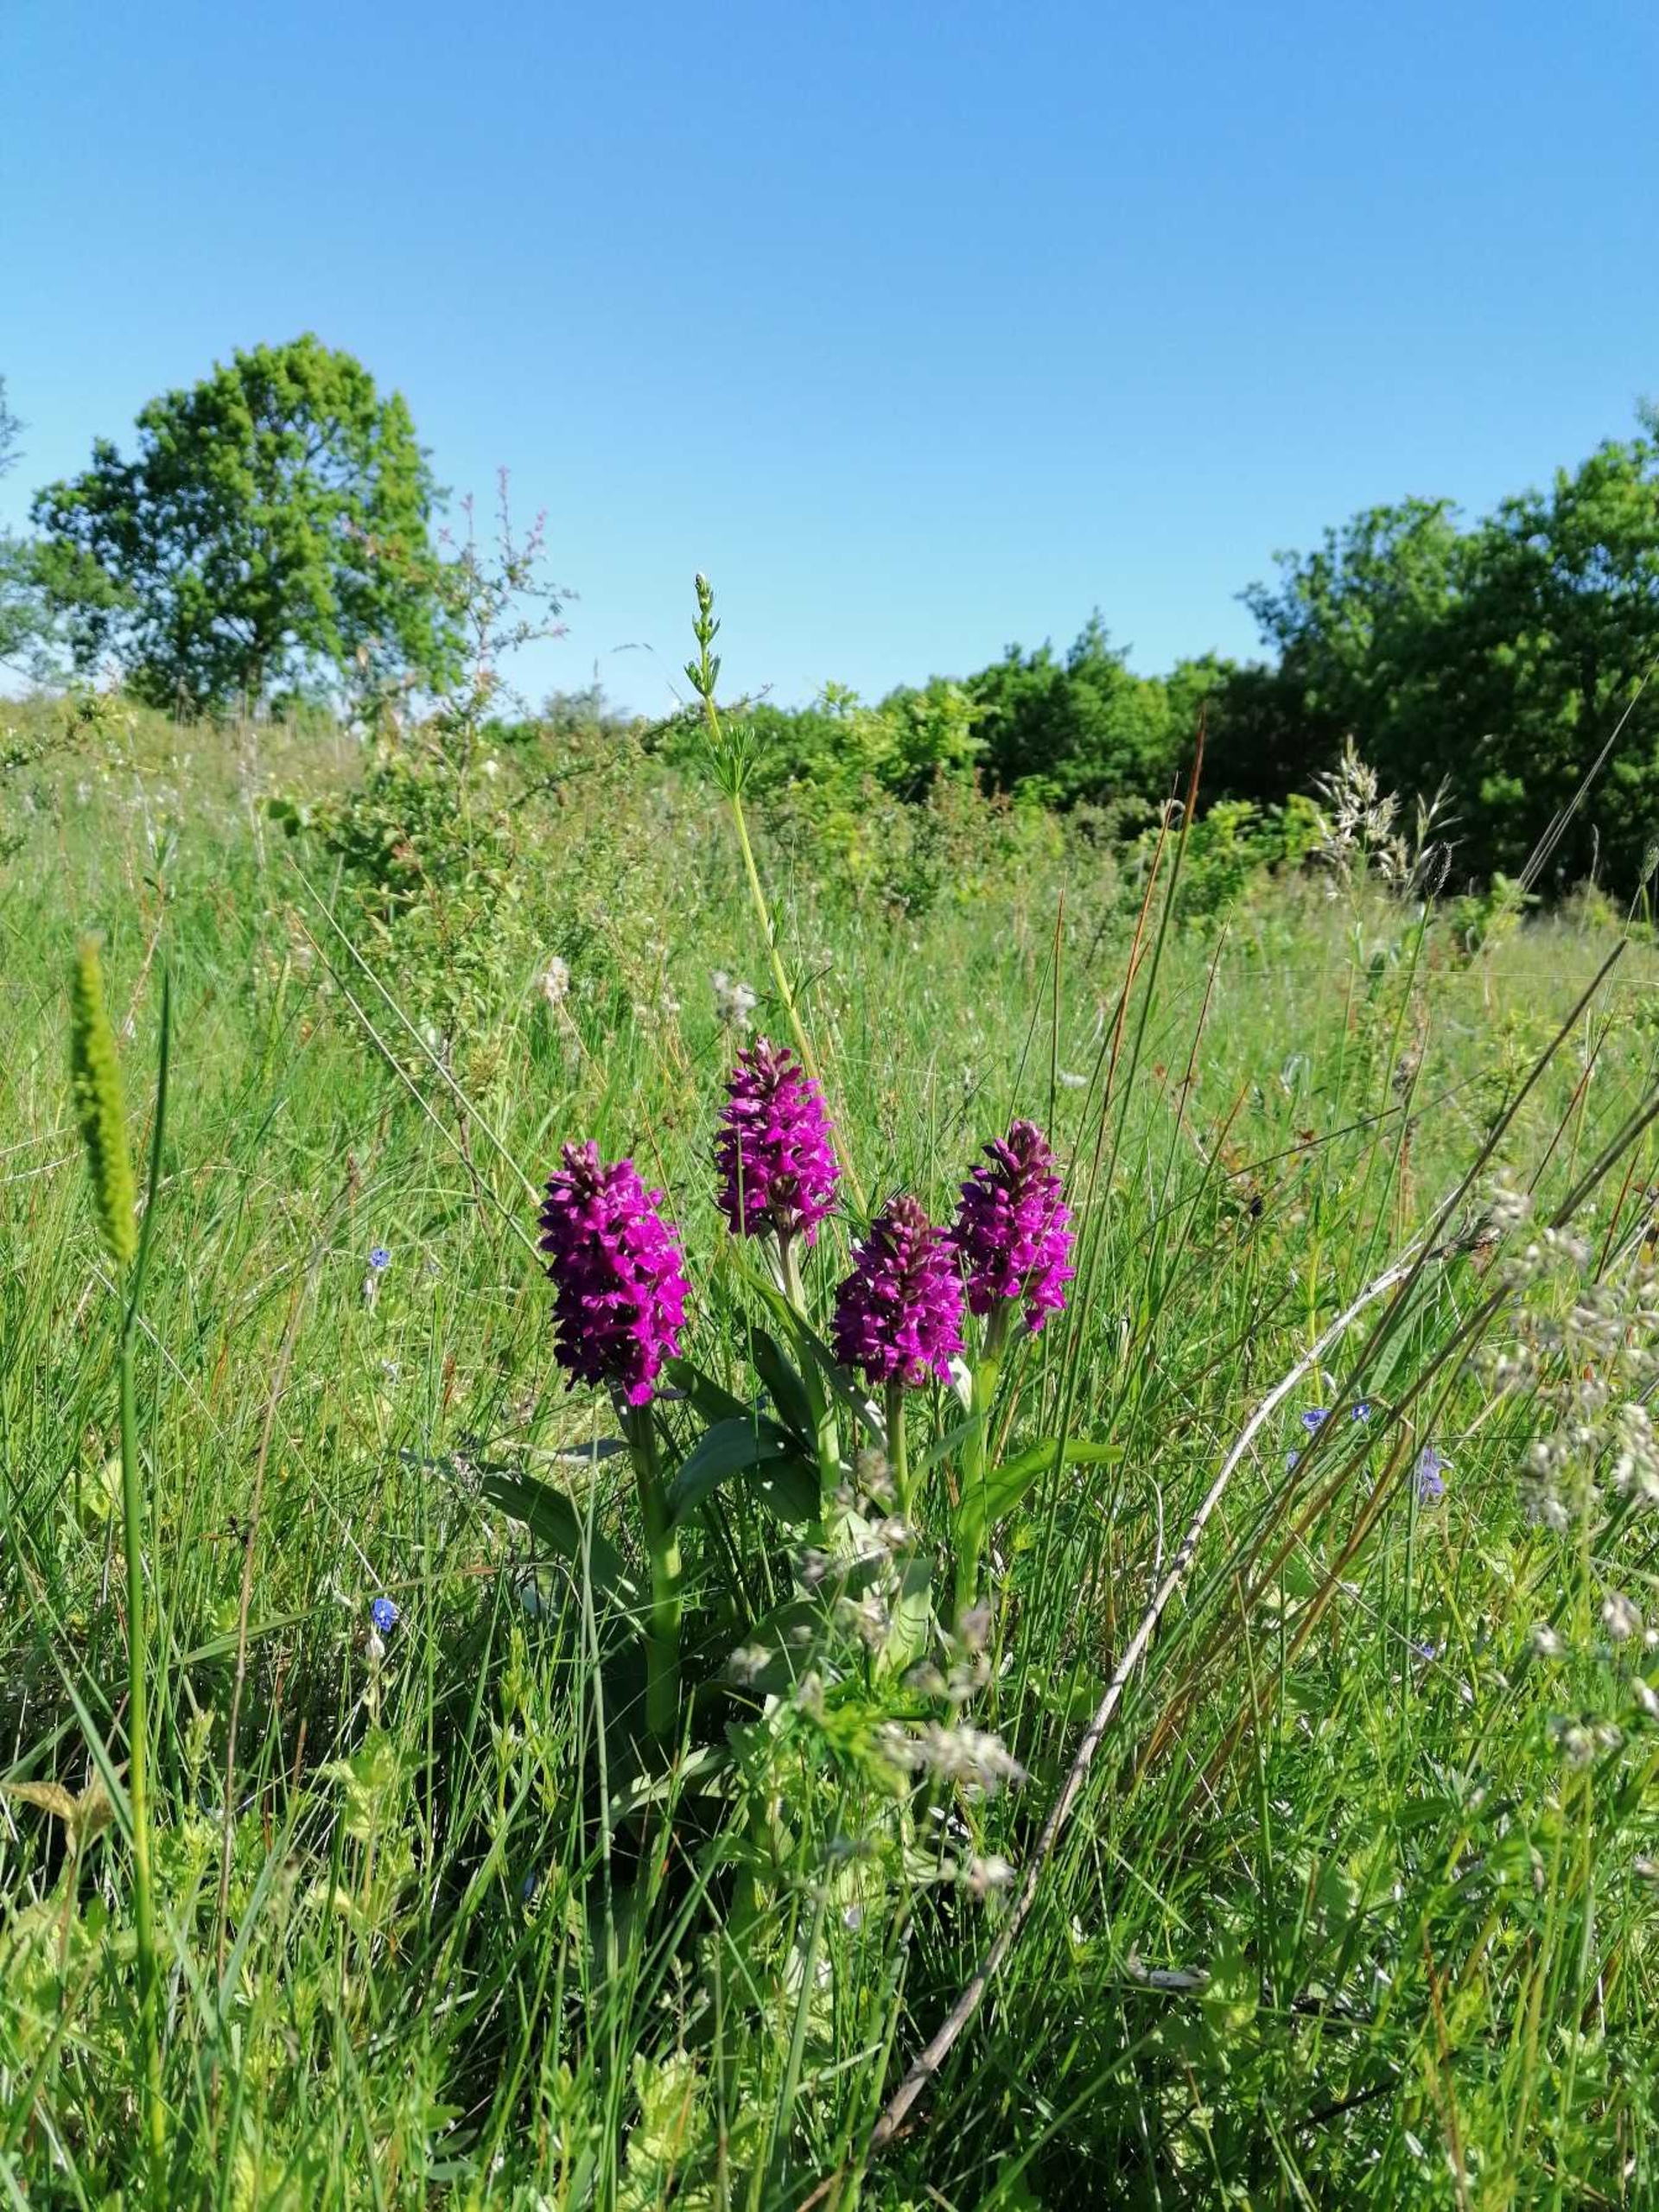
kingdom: Plantae
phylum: Tracheophyta
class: Liliopsida
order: Asparagales
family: Orchidaceae
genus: Dactylorhiza
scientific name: Dactylorhiza majalis
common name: Maj-gøgeurt
